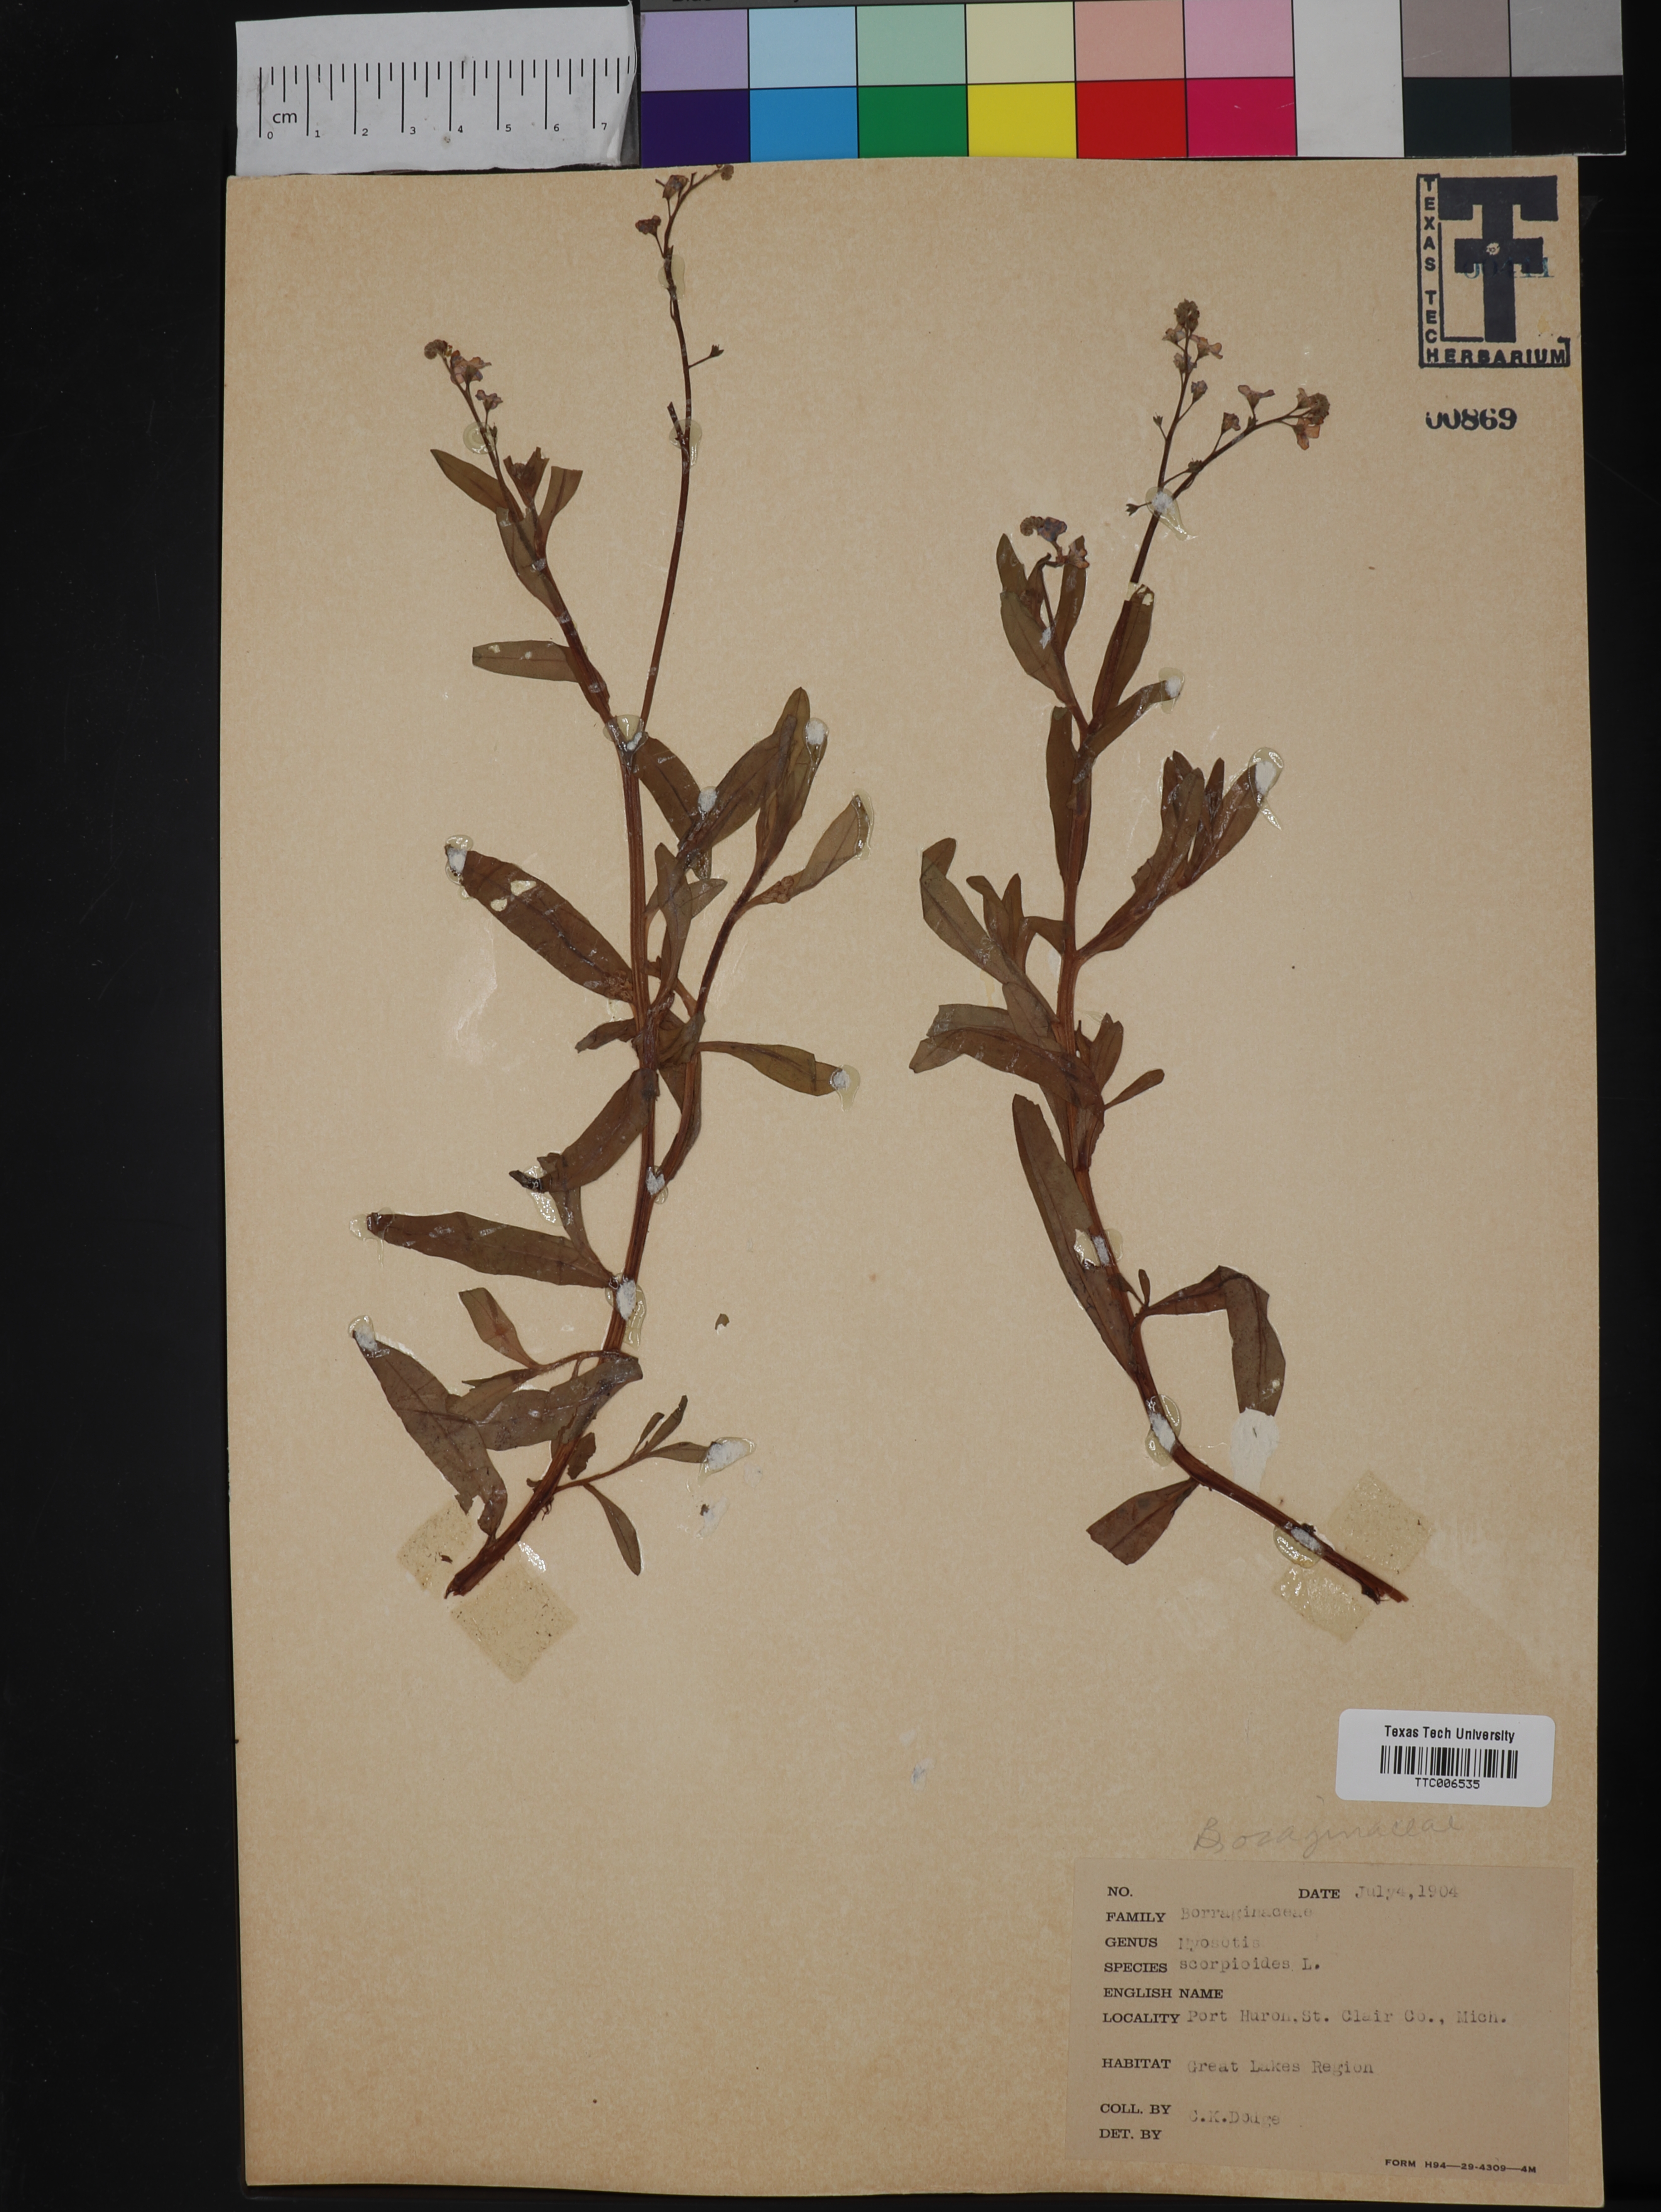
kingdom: Plantae
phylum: Tracheophyta
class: Magnoliopsida
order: Boraginales
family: Boraginaceae
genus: Myosotis
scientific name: Myosotis scorpioides
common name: Water forget-me-not
